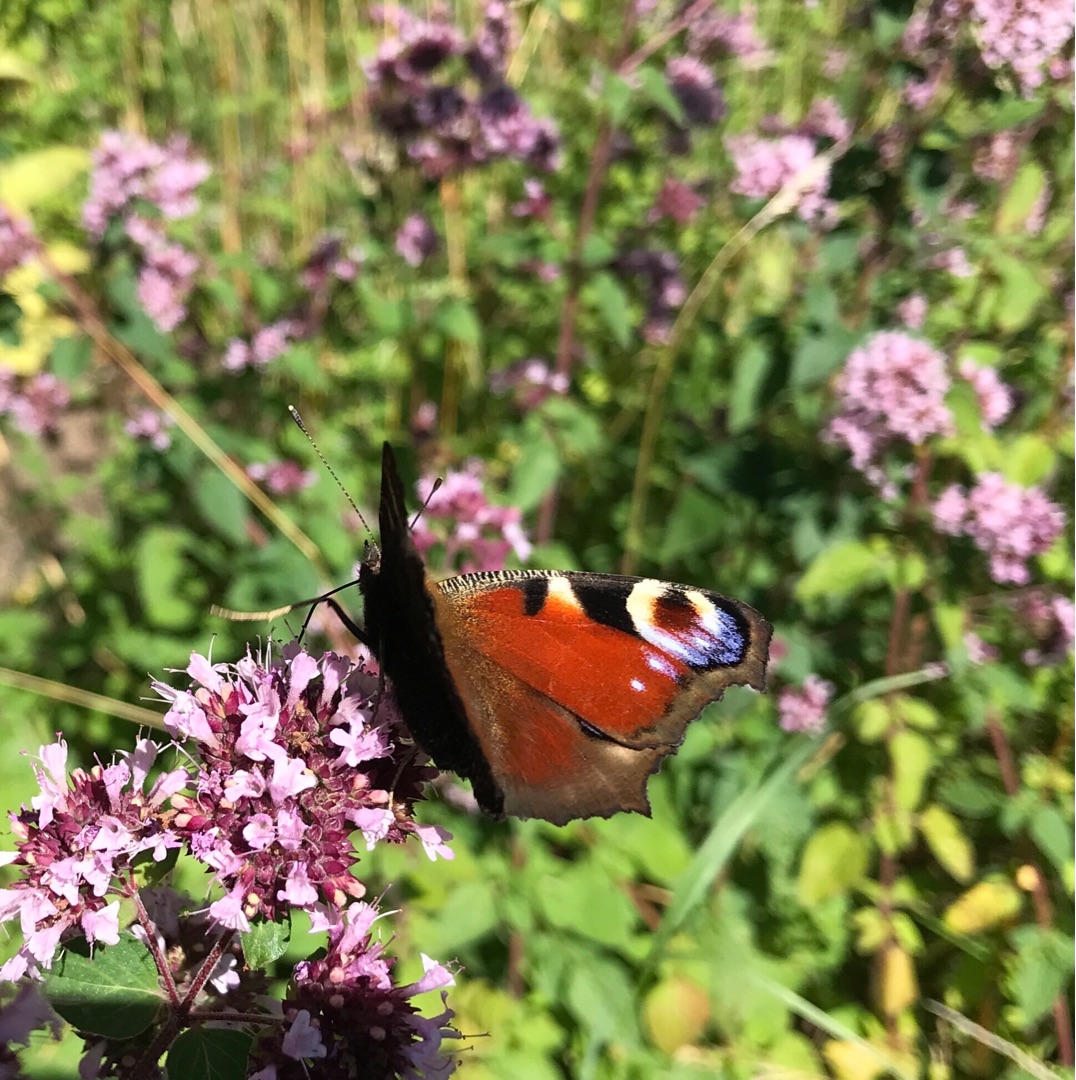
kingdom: Animalia
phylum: Arthropoda
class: Insecta
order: Lepidoptera
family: Nymphalidae
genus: Aglais
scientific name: Aglais io
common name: Dagpåfugleøje
